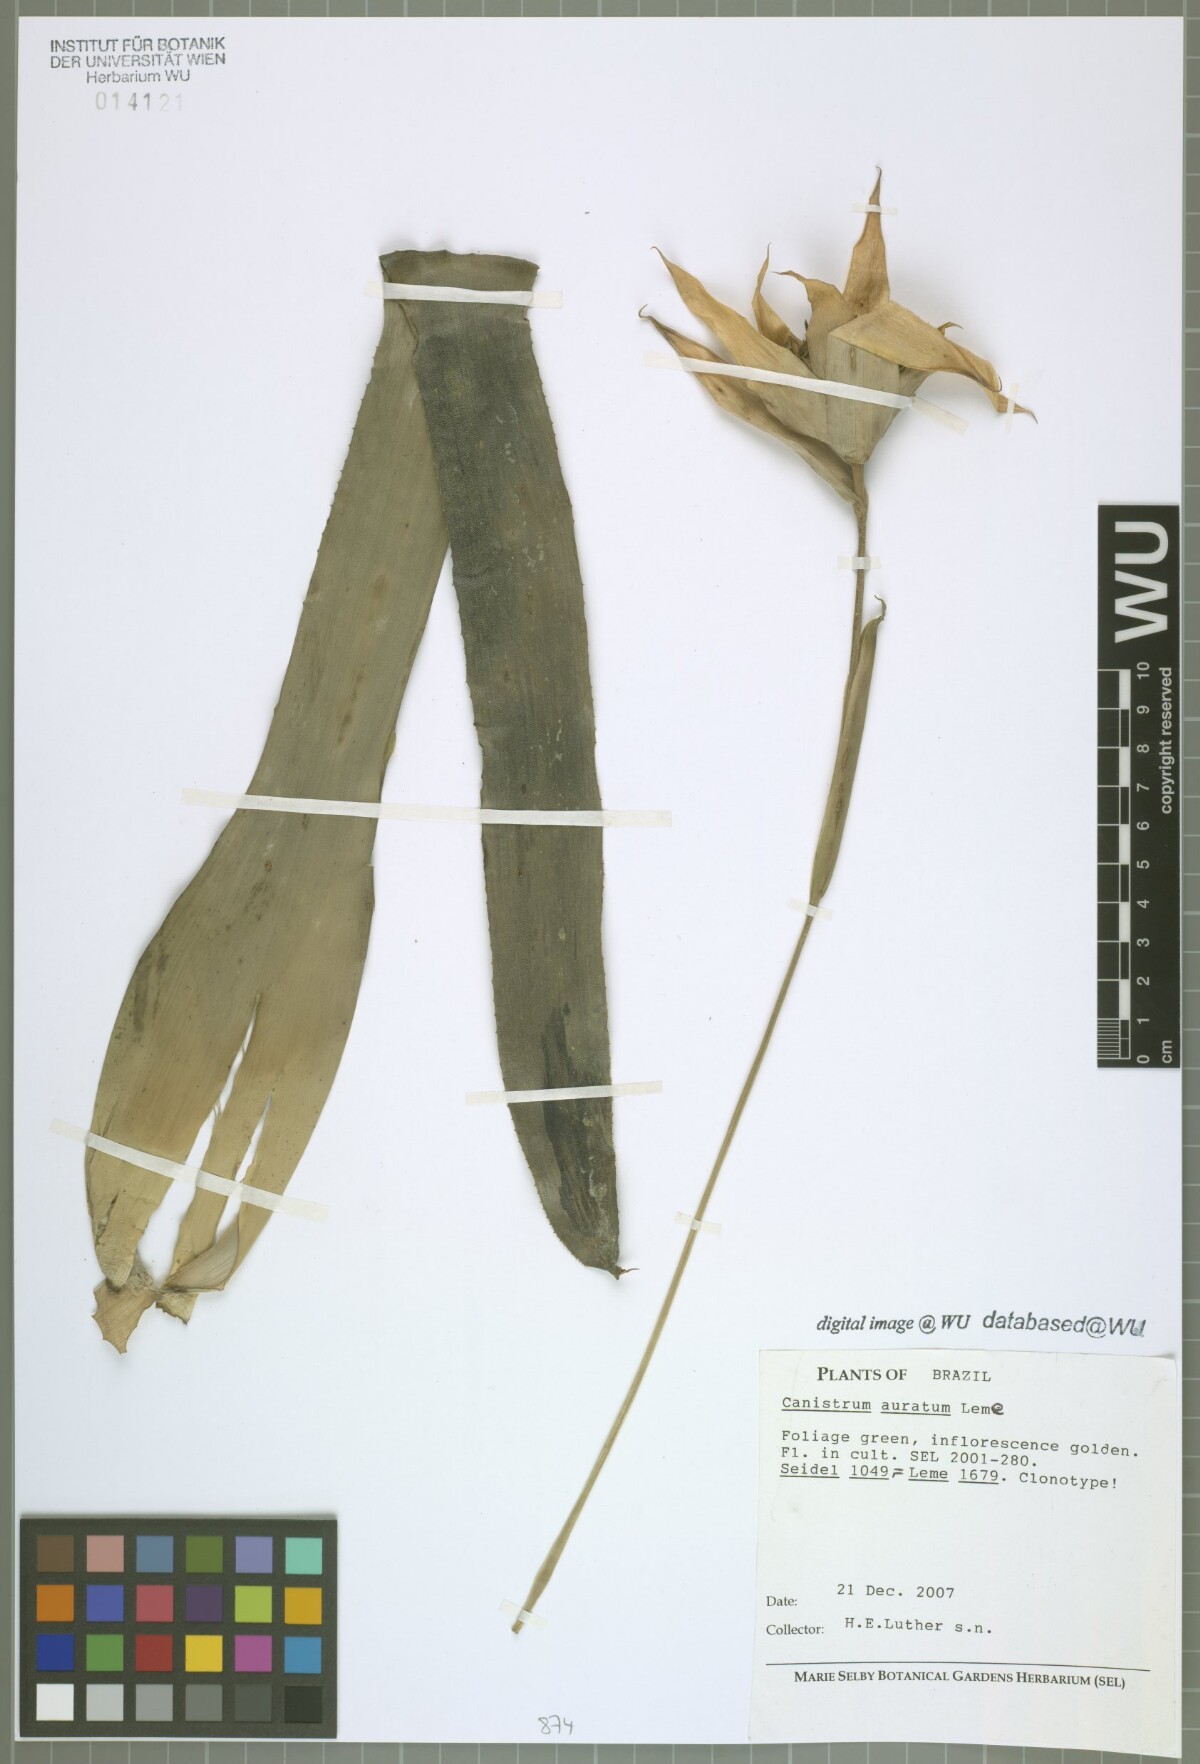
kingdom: Plantae
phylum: Tracheophyta
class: Liliopsida
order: Poales
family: Bromeliaceae
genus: Canistrum
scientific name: Canistrum auratum
